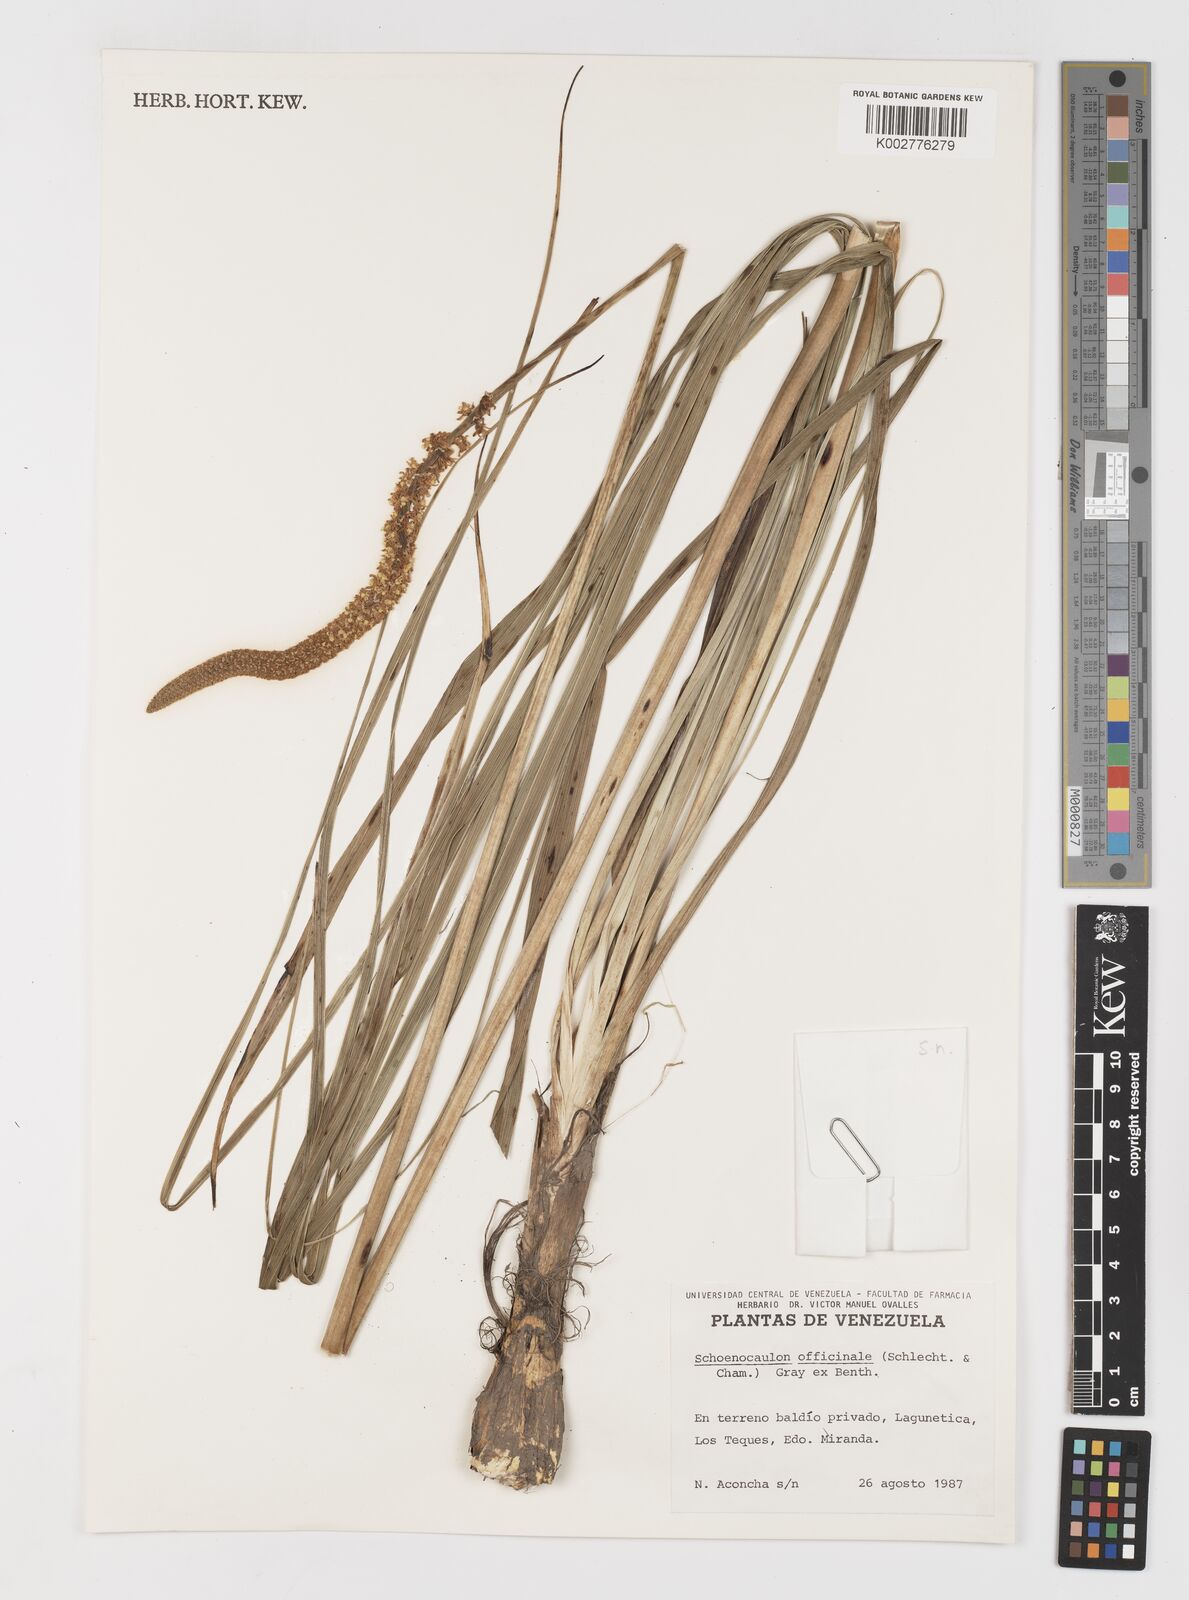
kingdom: Plantae
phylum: Tracheophyta
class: Liliopsida
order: Liliales
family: Melanthiaceae
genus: Schoenocaulon
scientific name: Schoenocaulon officinale
